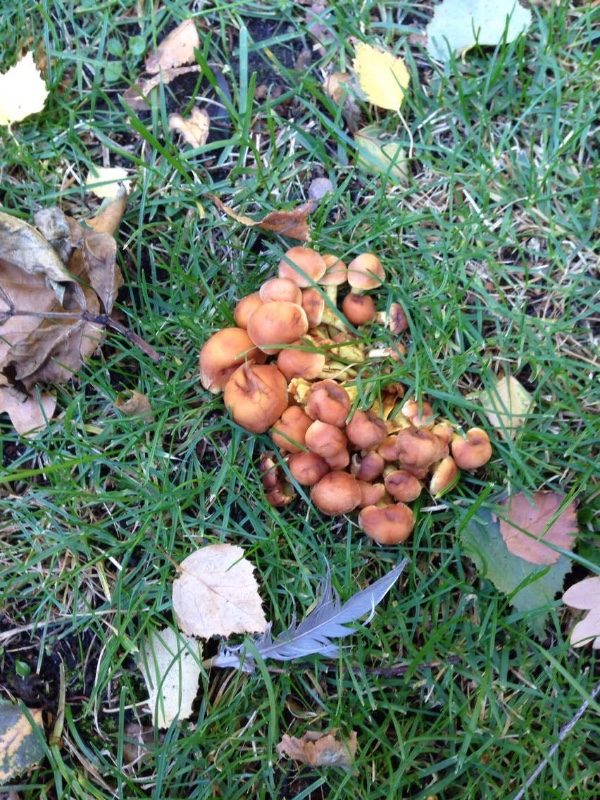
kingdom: Fungi
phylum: Basidiomycota
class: Agaricomycetes
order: Agaricales
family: Strophariaceae
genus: Hypholoma
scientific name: Hypholoma fasciculare
